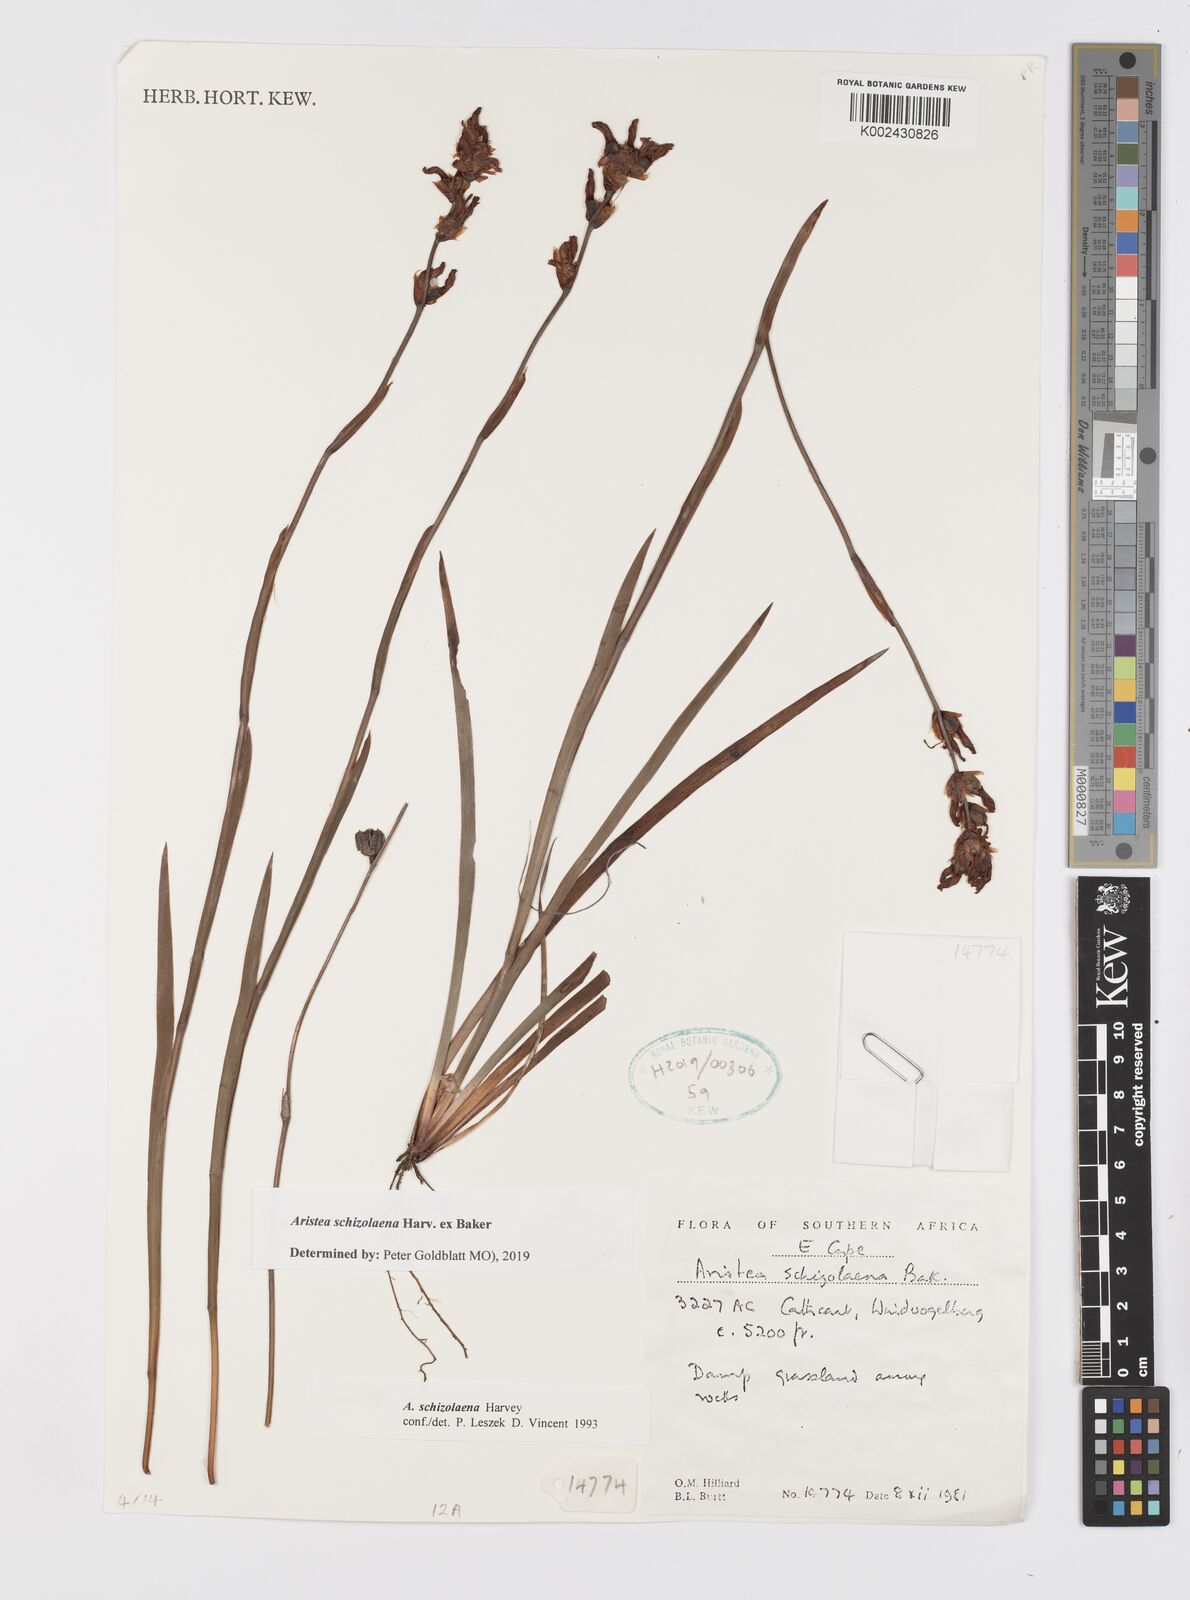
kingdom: Plantae
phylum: Tracheophyta
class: Liliopsida
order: Asparagales
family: Iridaceae
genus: Aristea
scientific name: Aristea schizolaena
